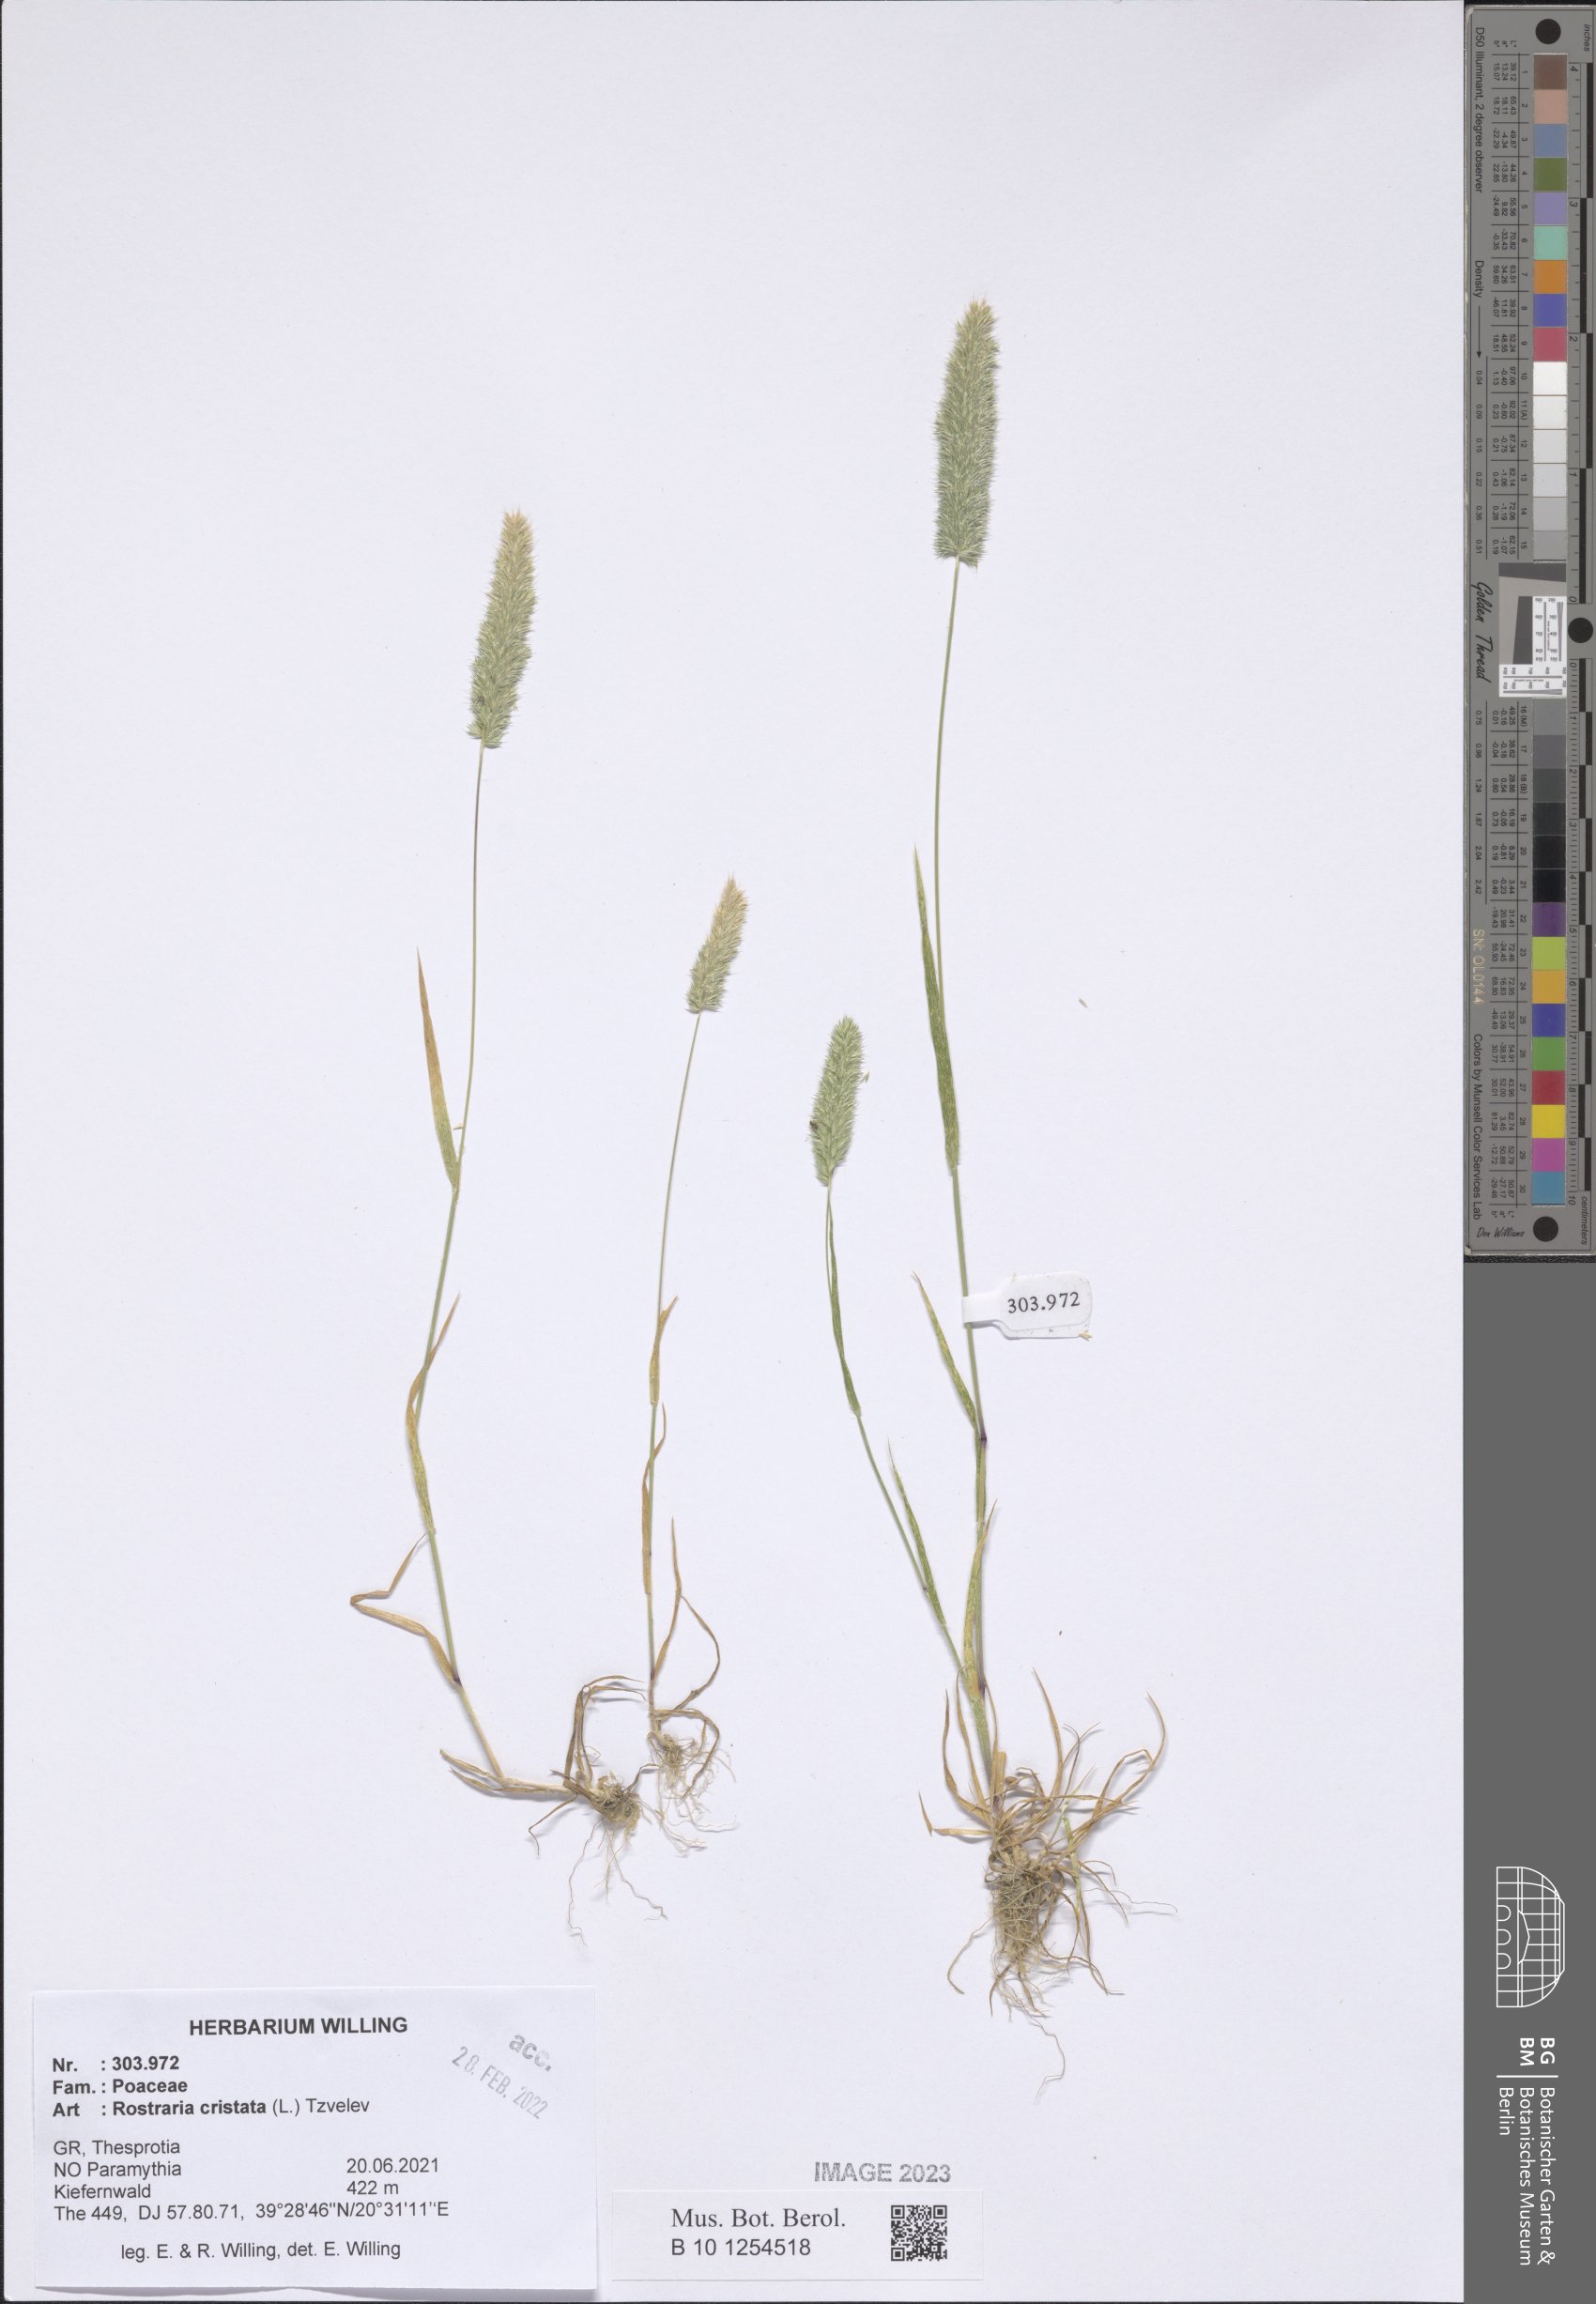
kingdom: Plantae
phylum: Tracheophyta
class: Liliopsida
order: Poales
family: Poaceae
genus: Rostraria
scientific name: Rostraria cristata
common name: Mediterranean hair-grass
